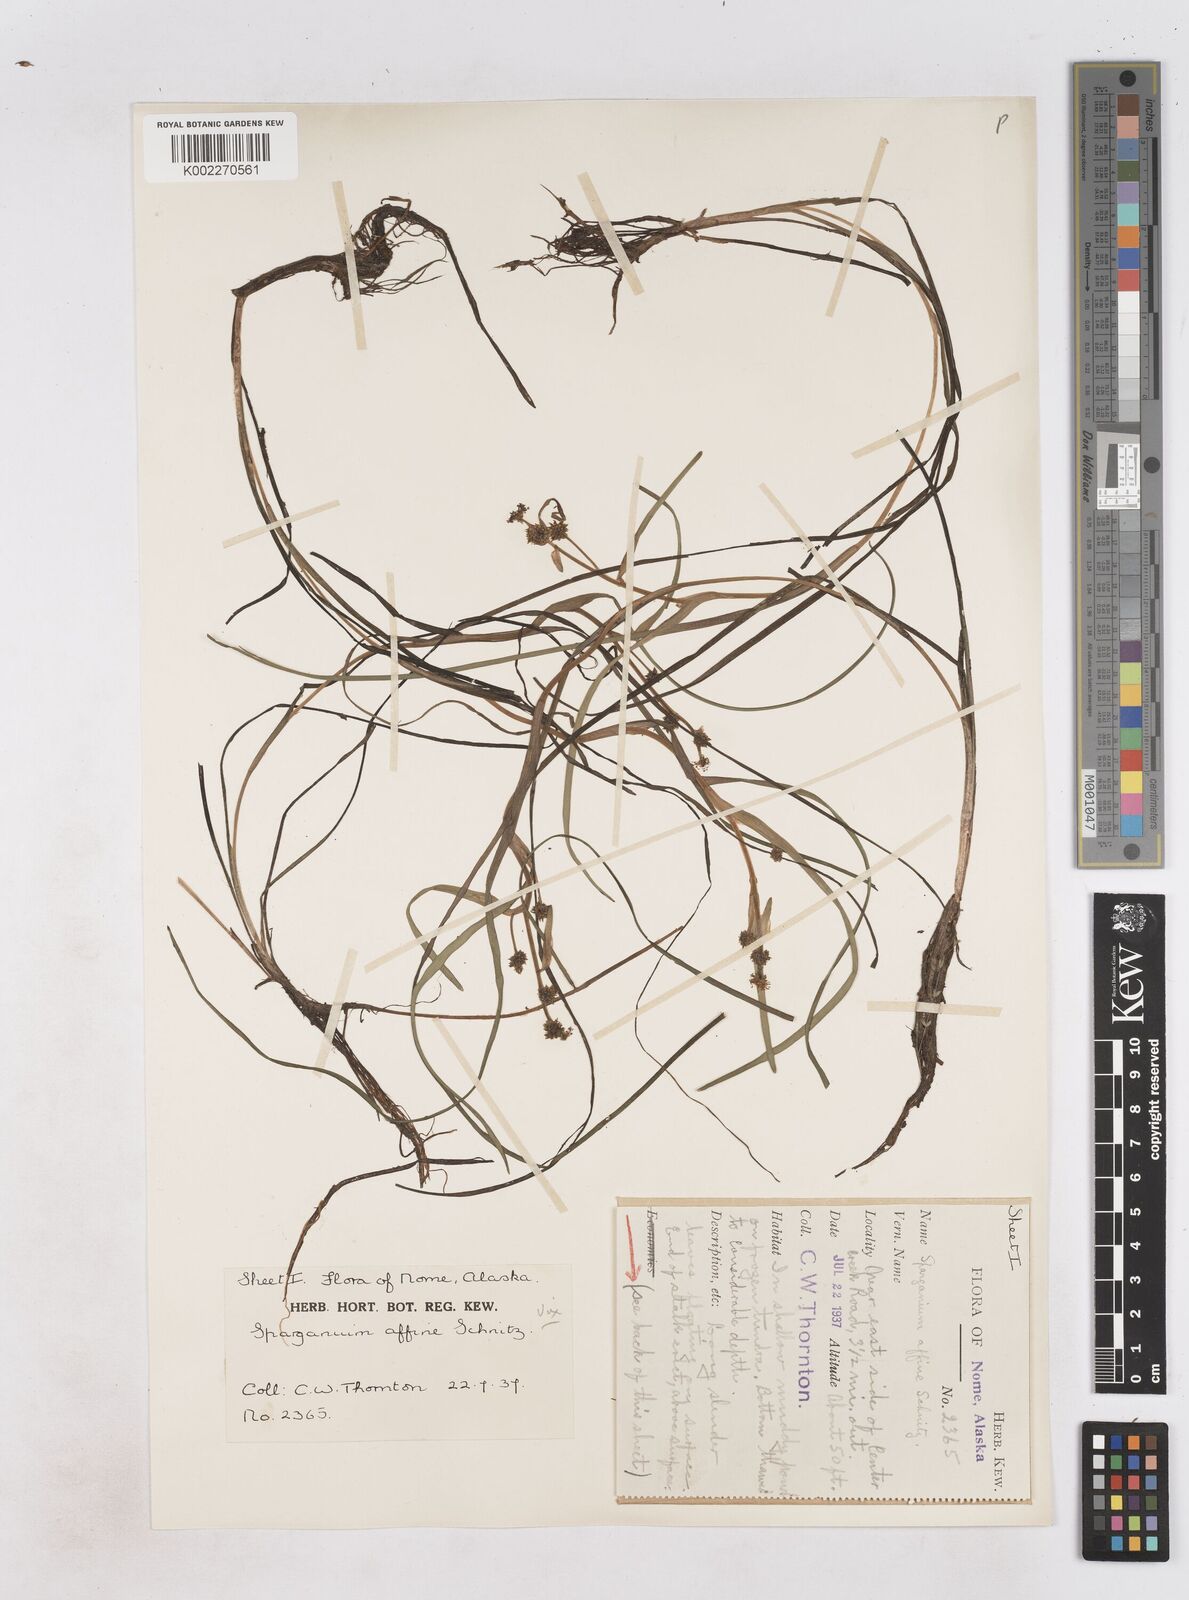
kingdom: Plantae
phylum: Tracheophyta
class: Liliopsida
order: Poales
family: Typhaceae
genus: Sparganium
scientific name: Sparganium angustifolium
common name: Floating bur-reed
